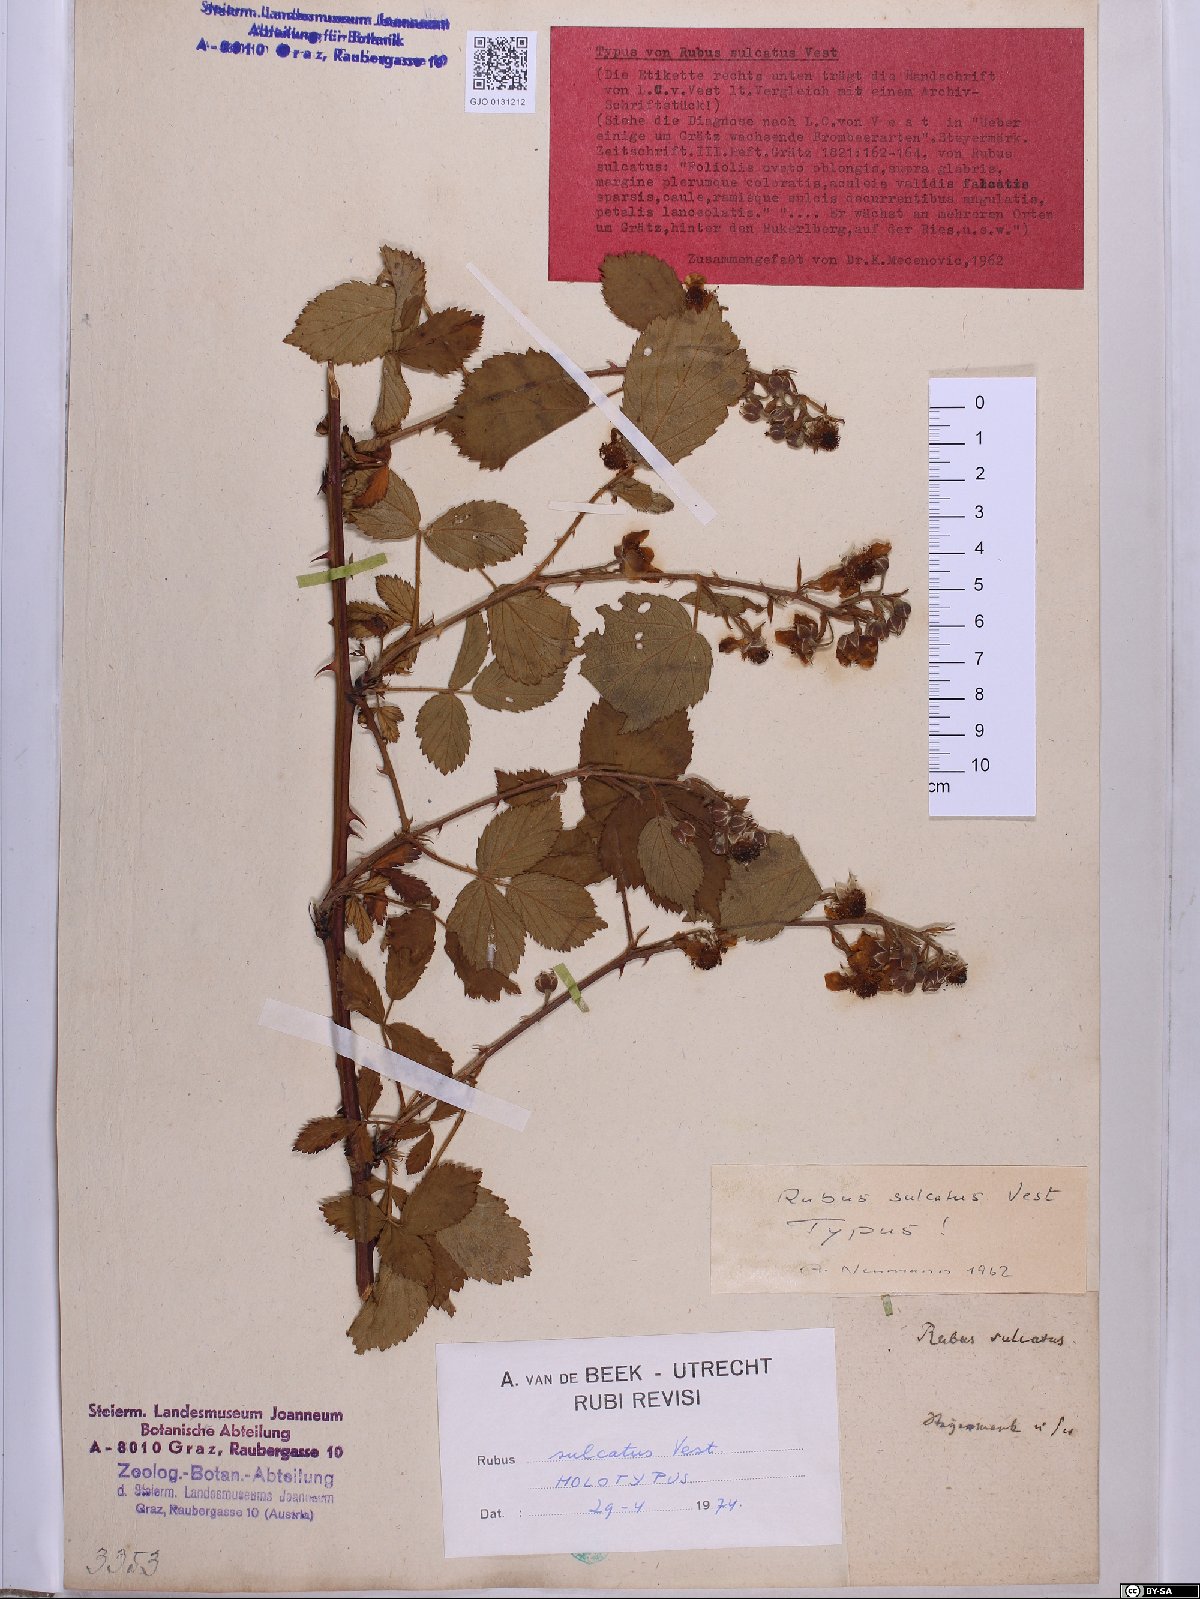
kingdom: Plantae
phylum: Tracheophyta
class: Magnoliopsida
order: Rosales
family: Rosaceae
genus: Rubus
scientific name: Rubus sulcatus
